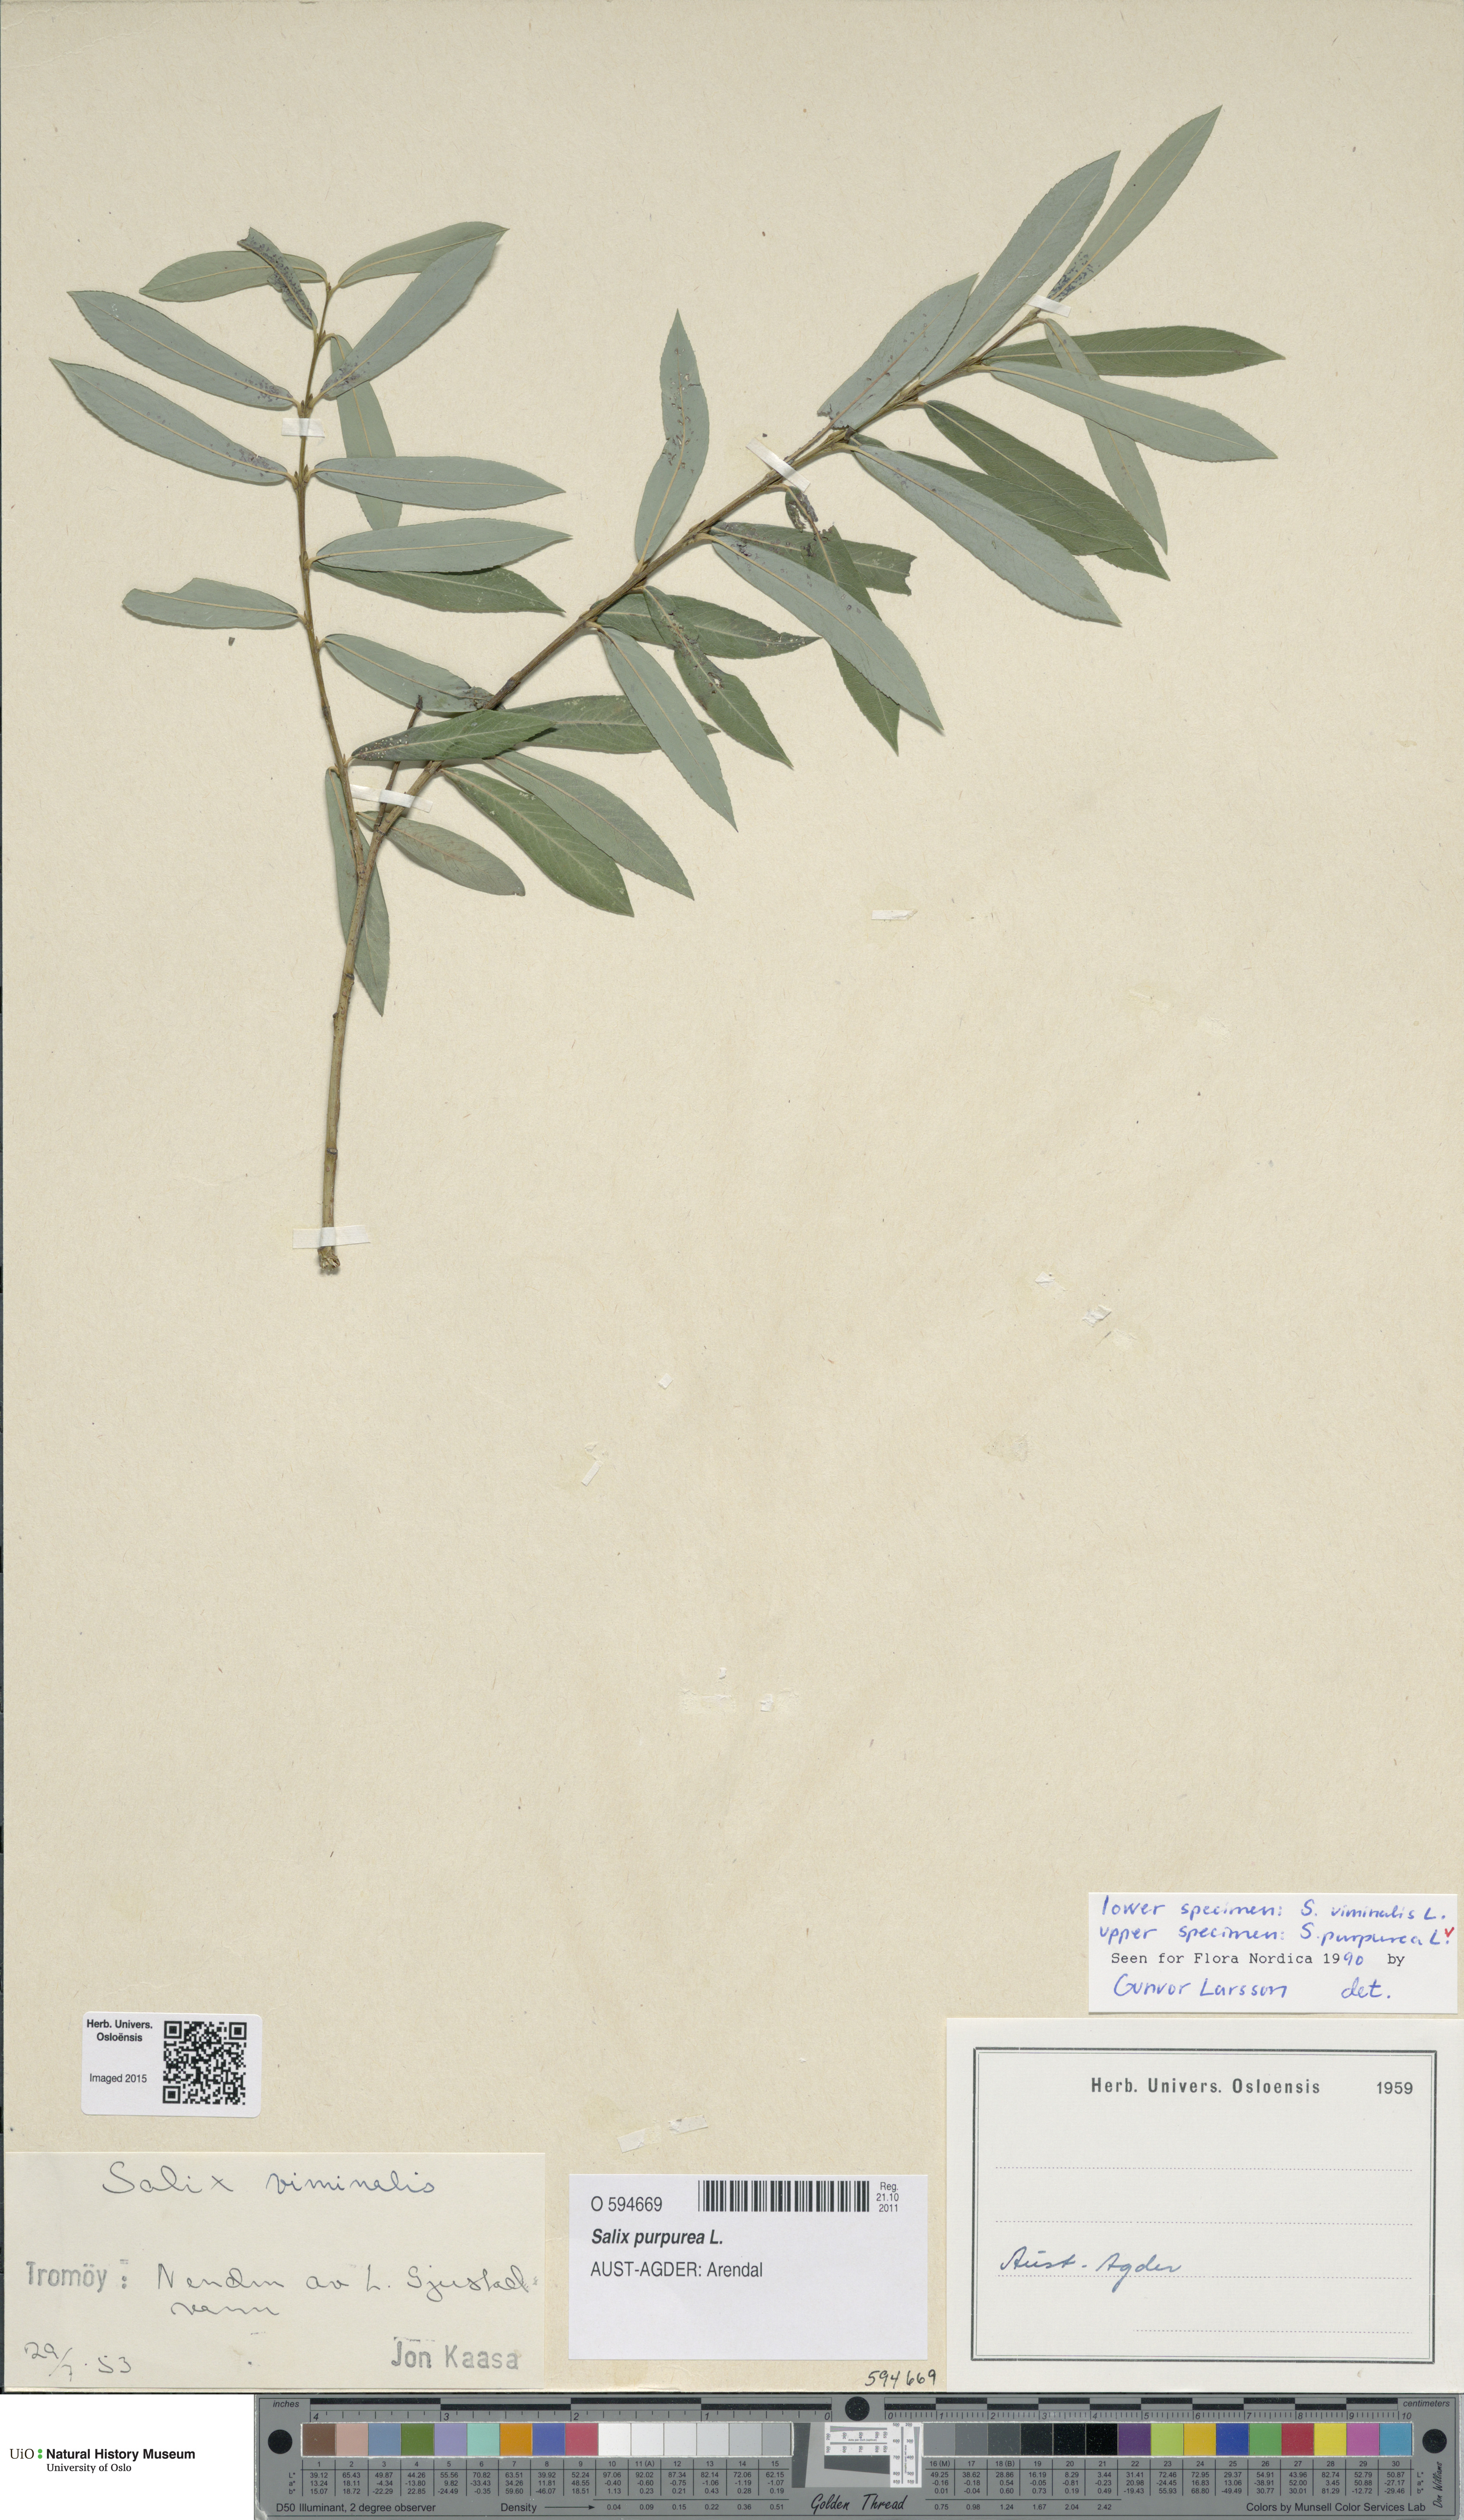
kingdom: Plantae
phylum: Tracheophyta
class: Magnoliopsida
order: Malpighiales
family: Salicaceae
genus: Salix
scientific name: Salix purpurea
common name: Purple willow
